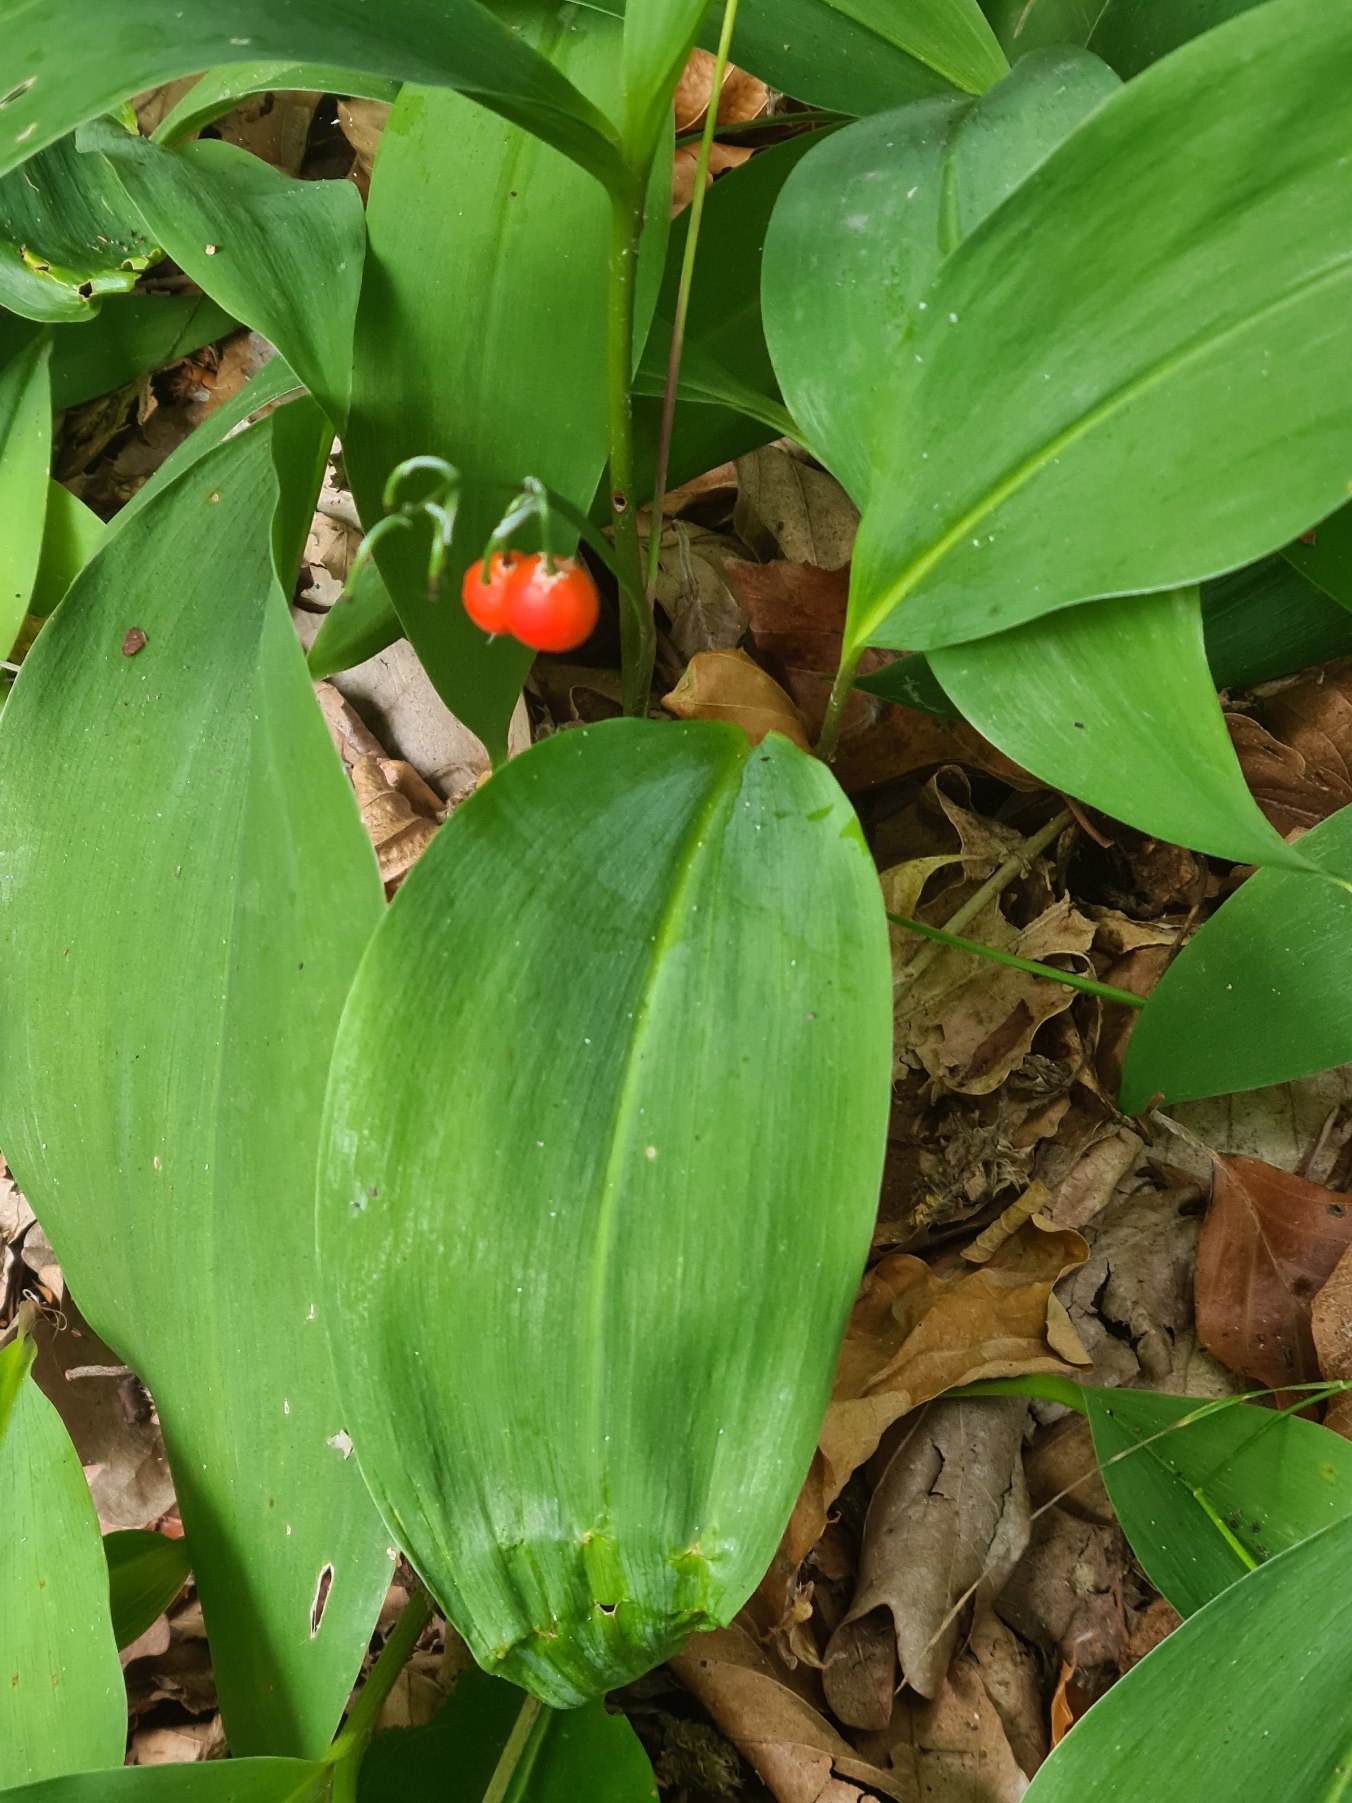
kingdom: Plantae
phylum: Tracheophyta
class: Liliopsida
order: Asparagales
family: Asparagaceae
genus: Convallaria
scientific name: Convallaria majalis
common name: Liljekonval
